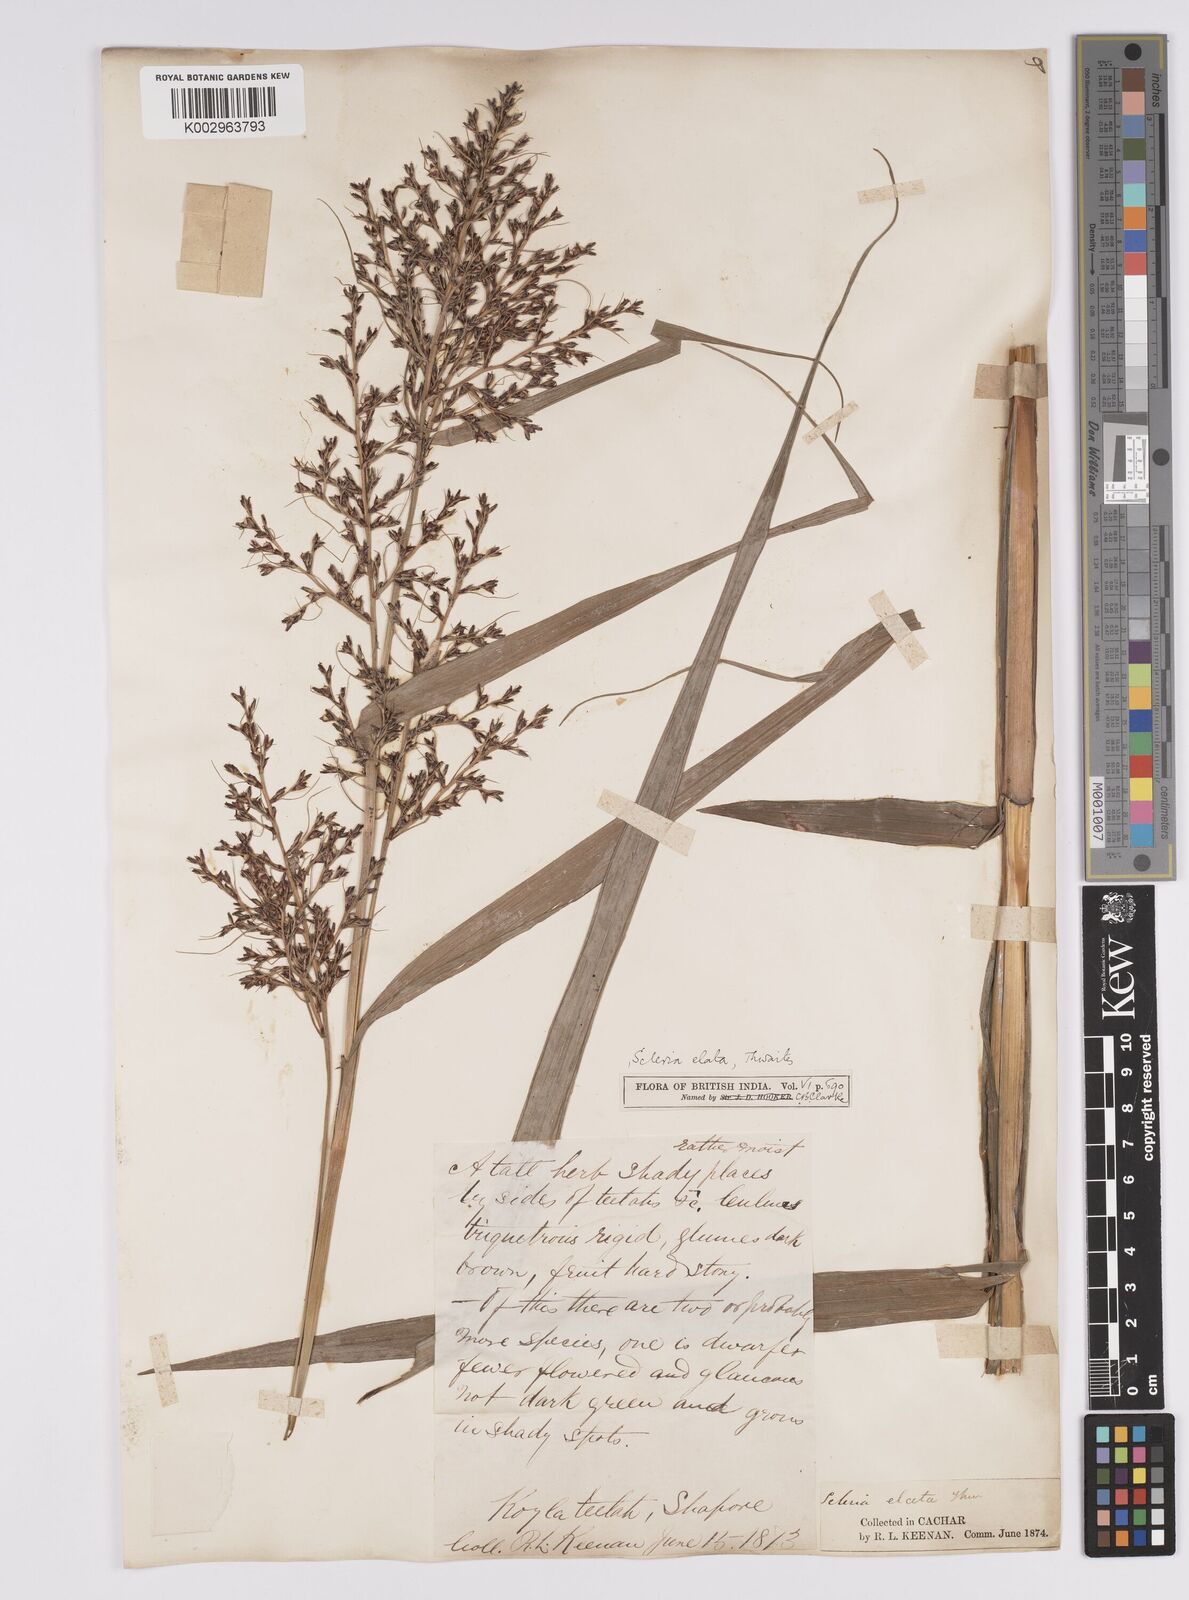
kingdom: Plantae
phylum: Tracheophyta
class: Liliopsida
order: Poales
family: Cyperaceae
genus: Scleria
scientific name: Scleria terrestris
